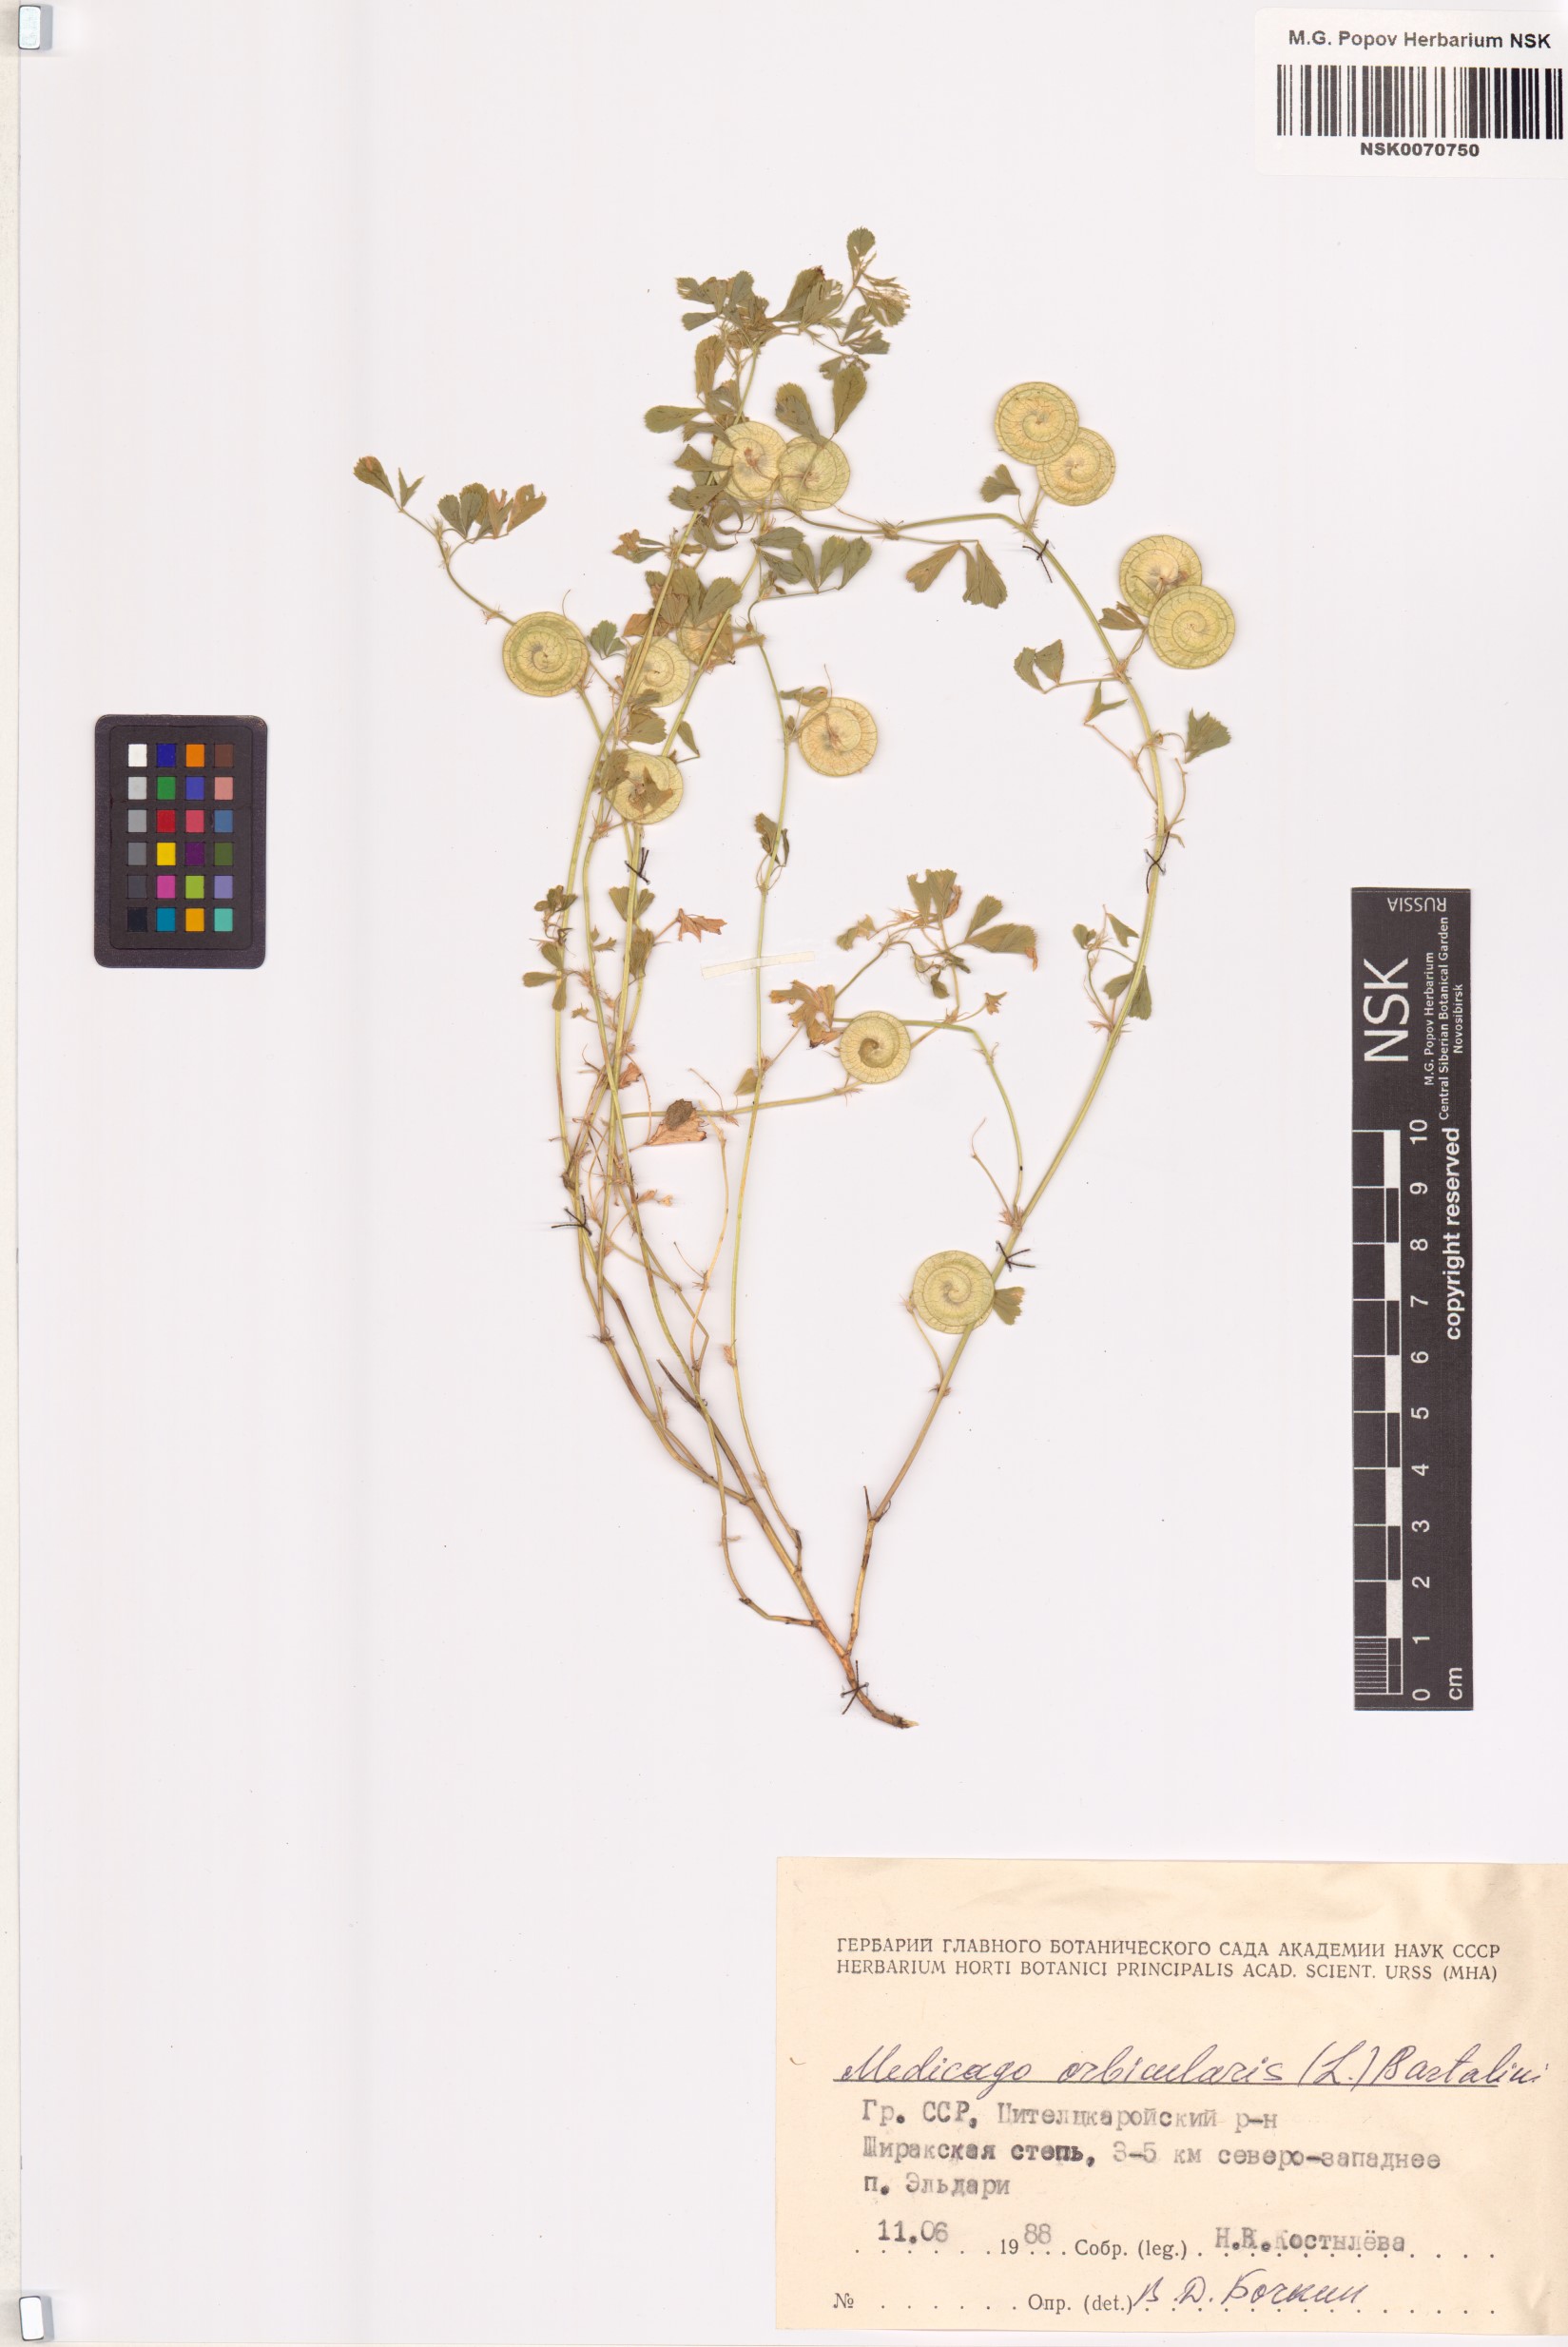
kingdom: Plantae
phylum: Tracheophyta
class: Magnoliopsida
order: Fabales
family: Fabaceae
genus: Medicago
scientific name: Medicago orbicularis
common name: Button medick
